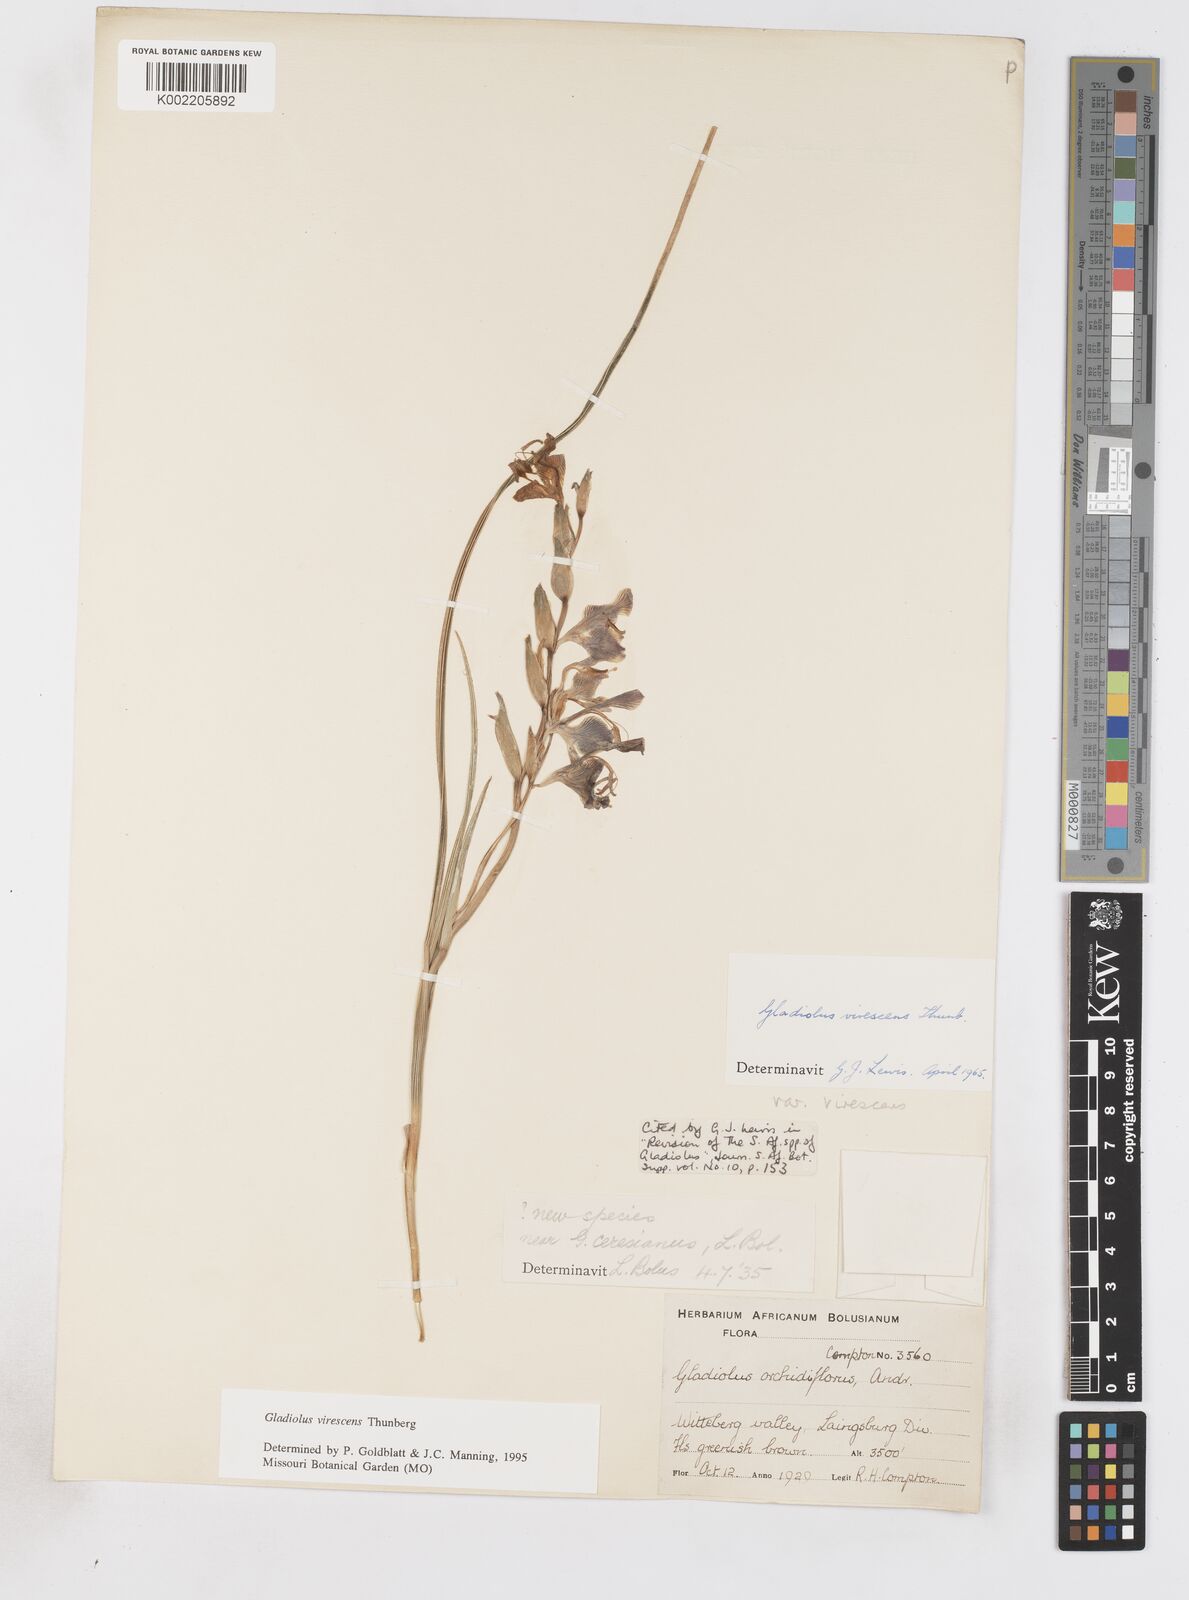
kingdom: Plantae
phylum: Tracheophyta
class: Liliopsida
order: Asparagales
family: Iridaceae
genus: Gladiolus
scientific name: Gladiolus virescens
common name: Yellow kalkoentjie
